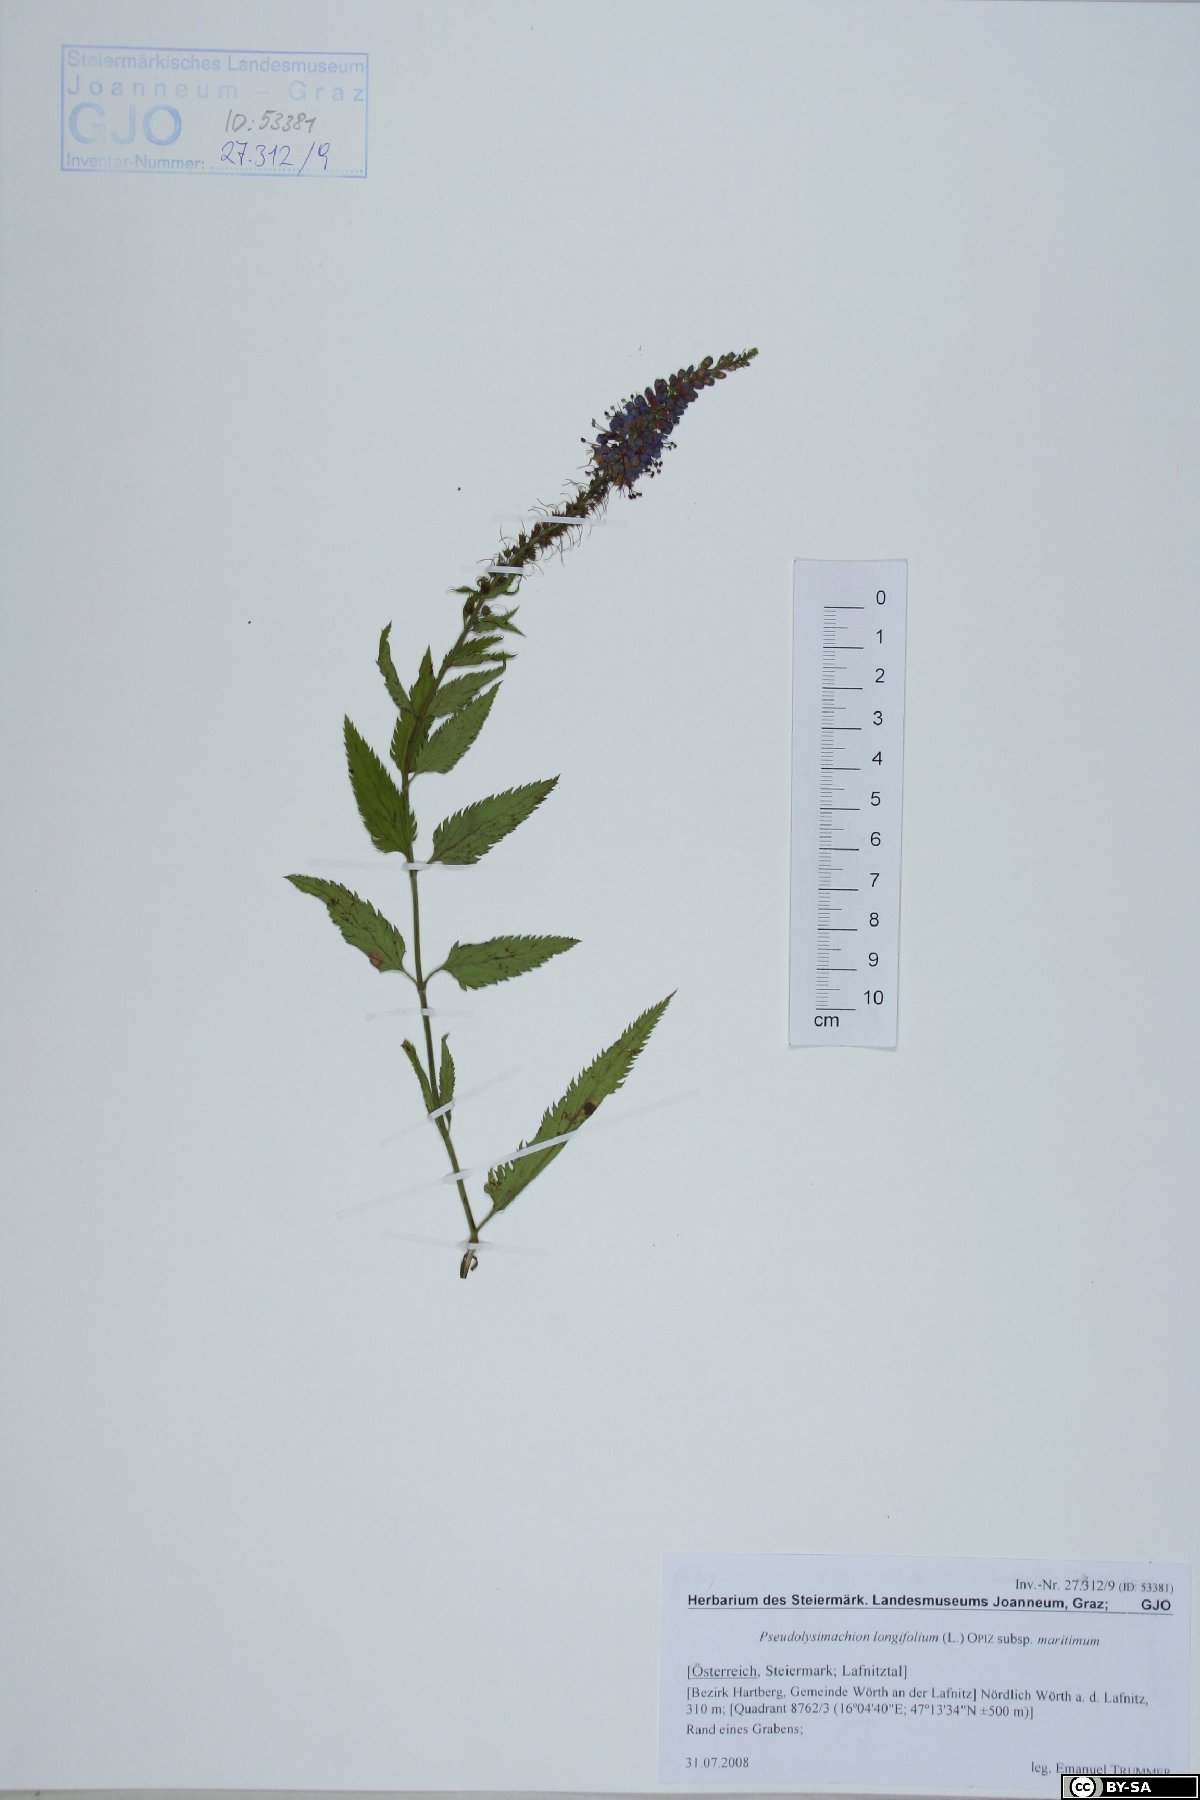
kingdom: Plantae
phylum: Tracheophyta
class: Magnoliopsida
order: Lamiales
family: Plantaginaceae
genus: Veronica
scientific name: Veronica maritima
